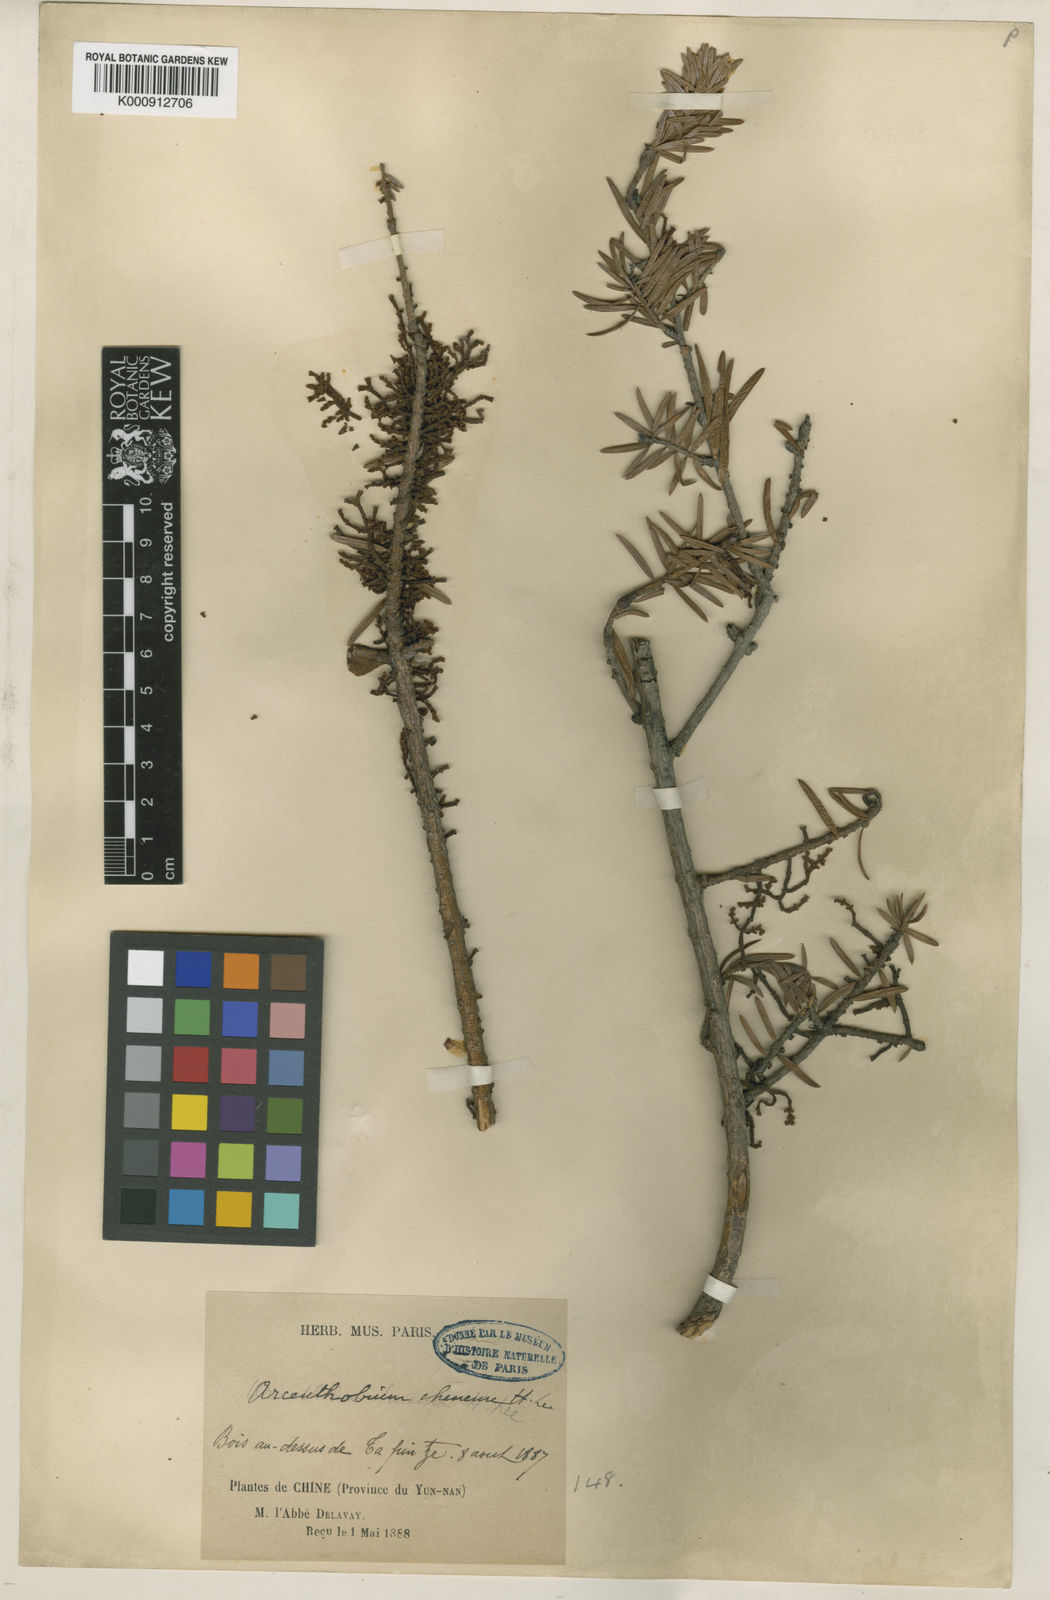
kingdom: Plantae
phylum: Tracheophyta
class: Magnoliopsida
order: Santalales
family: Viscaceae
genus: Arceuthobium
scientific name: Arceuthobium chinense
